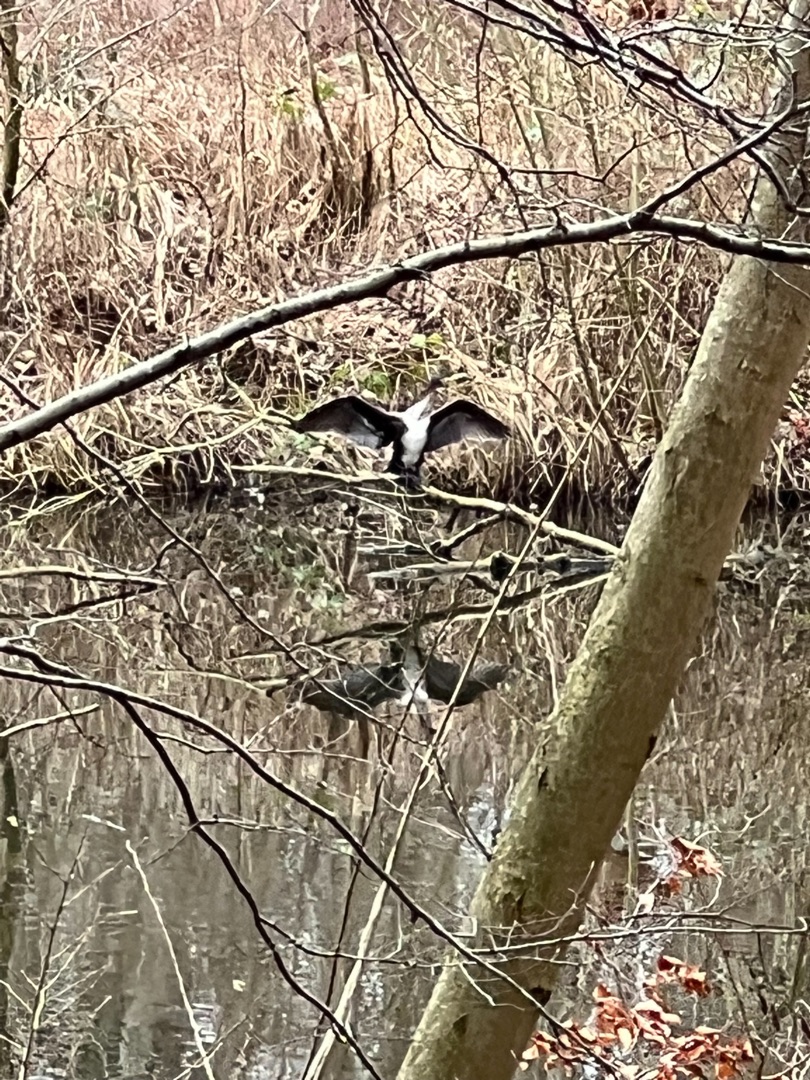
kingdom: Animalia
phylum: Chordata
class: Aves
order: Suliformes
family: Phalacrocoracidae
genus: Phalacrocorax
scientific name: Phalacrocorax carbo
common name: Skarv
